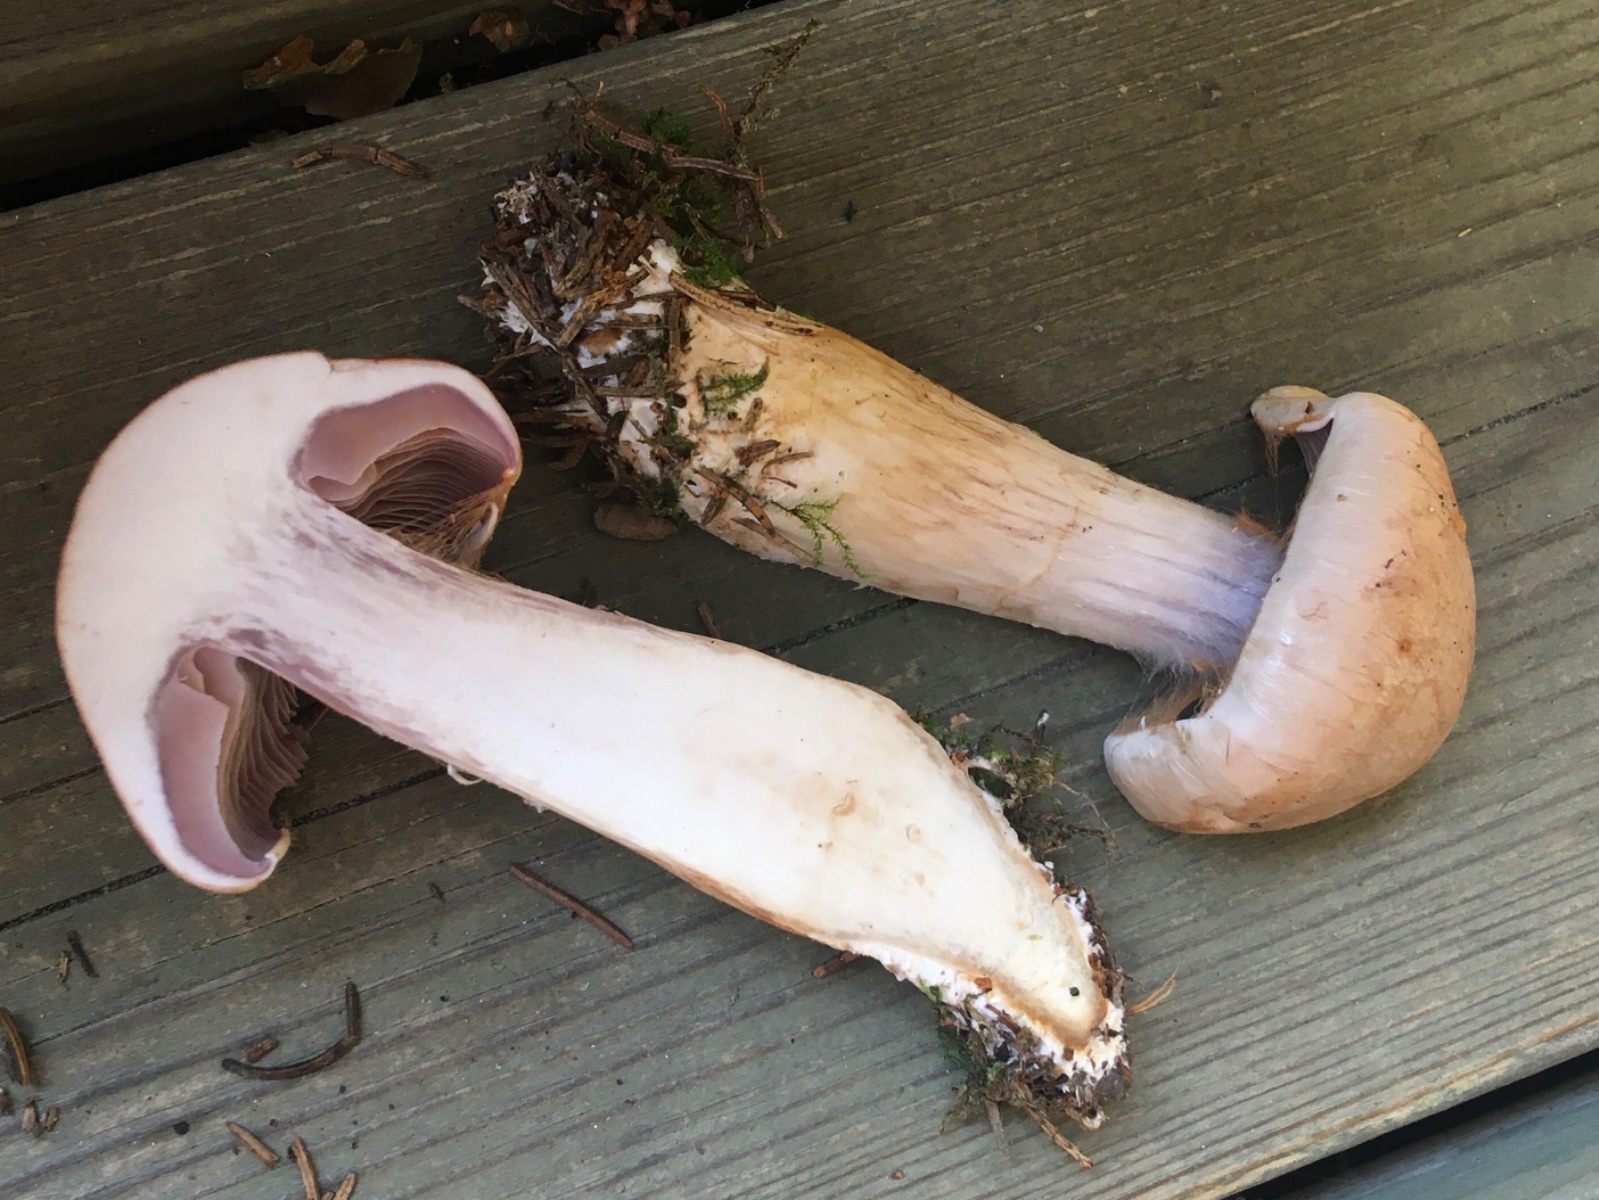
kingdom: Fungi
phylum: Basidiomycota
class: Agaricomycetes
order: Agaricales
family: Cortinariaceae
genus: Cortinarius
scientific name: Cortinarius caninus
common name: gran-slørhat
